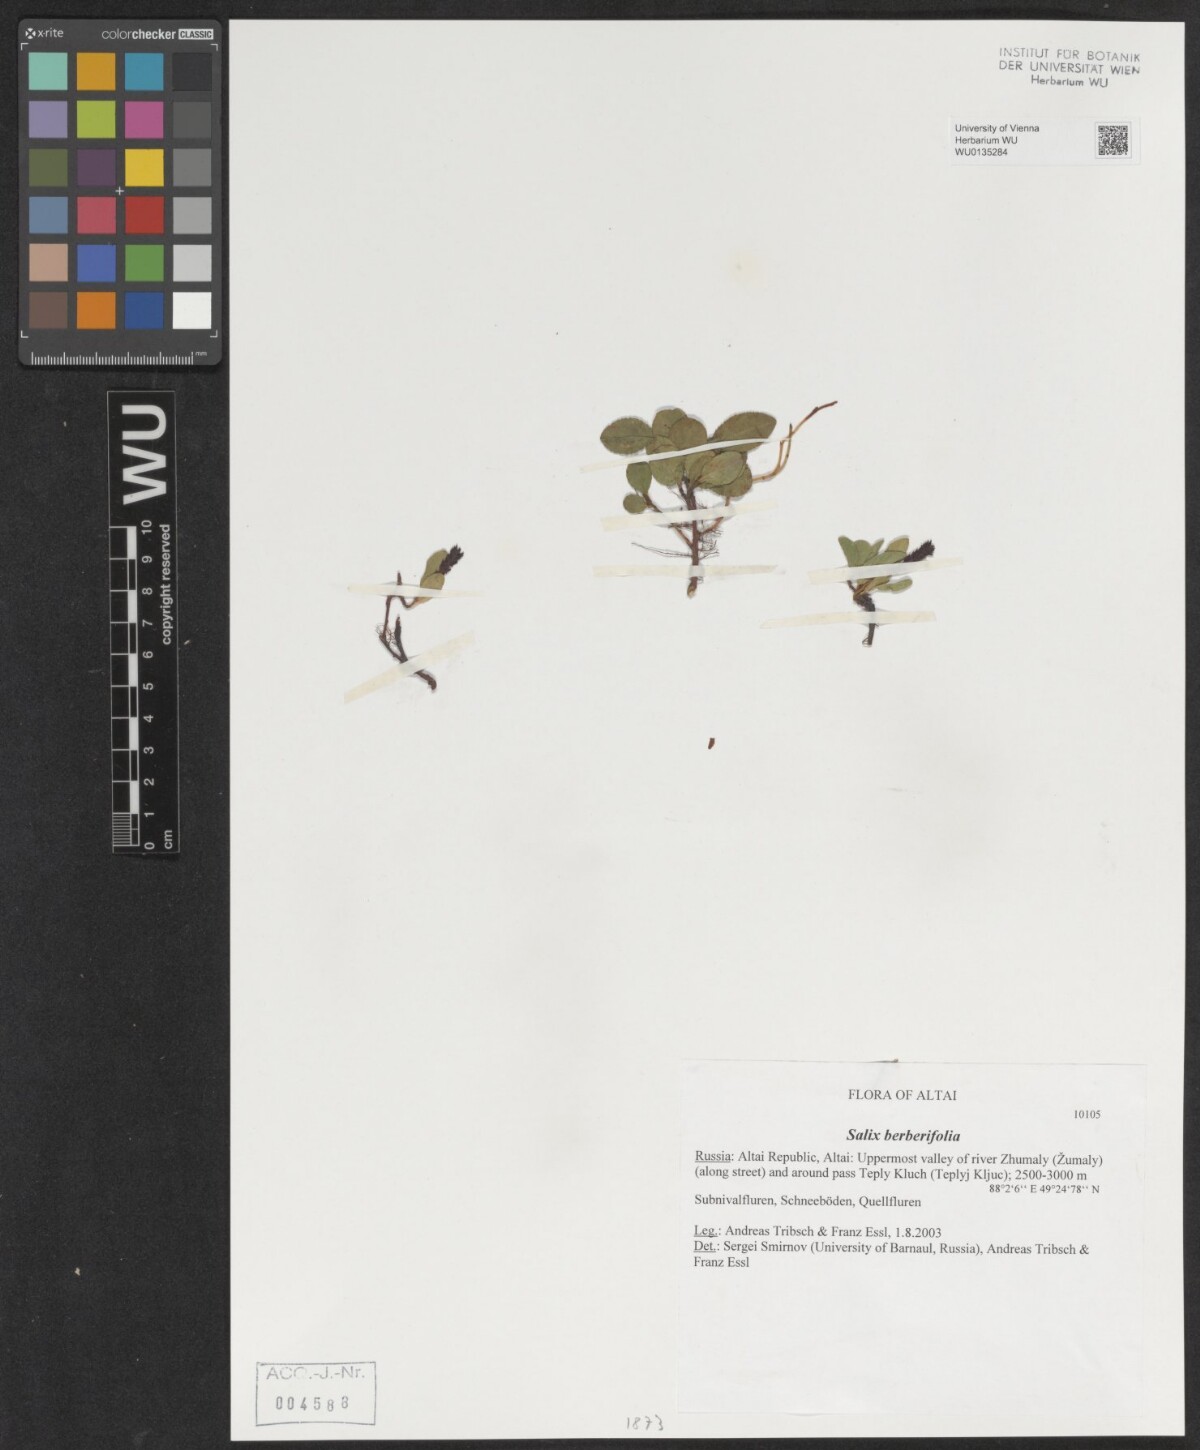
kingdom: Plantae
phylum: Tracheophyta
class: Magnoliopsida
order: Malpighiales
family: Salicaceae
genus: Salix
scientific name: Salix berberifolia
